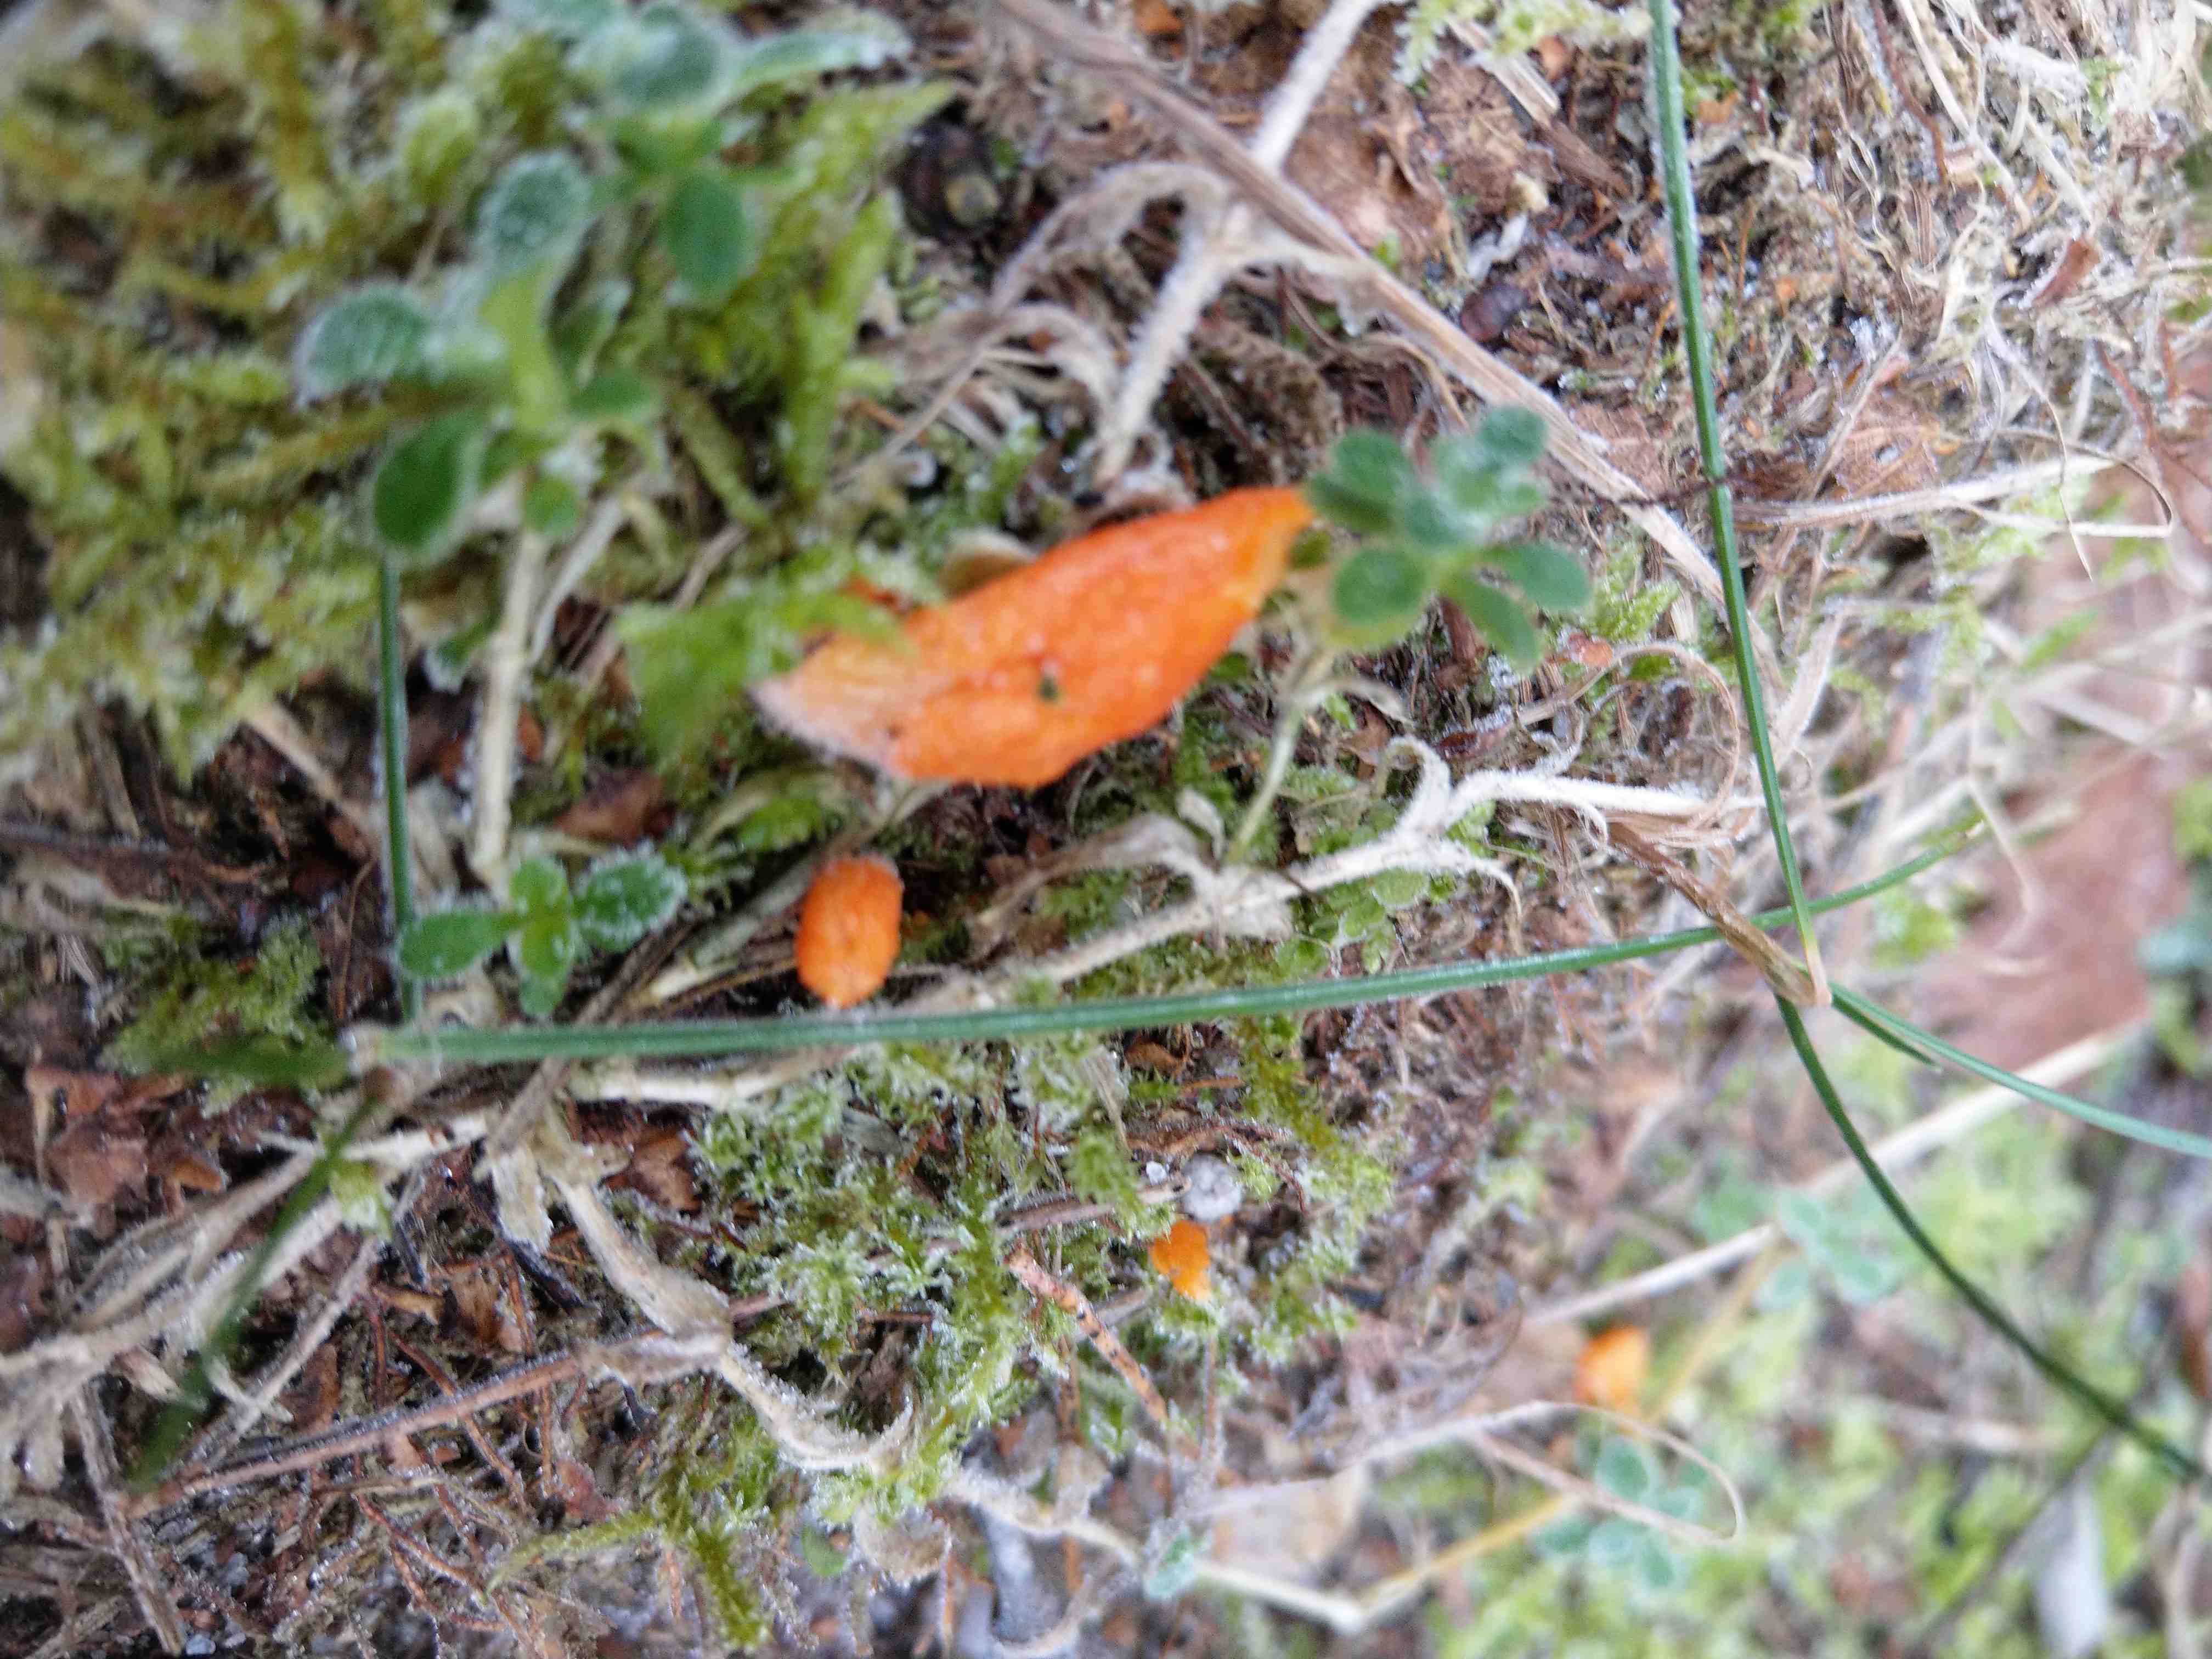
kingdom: Fungi
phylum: Ascomycota
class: Sordariomycetes
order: Hypocreales
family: Cordycipitaceae
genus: Cordyceps
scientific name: Cordyceps militaris
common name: puppe-snyltekølle
